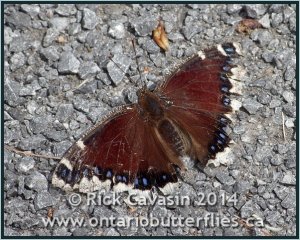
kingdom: Animalia
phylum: Arthropoda
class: Insecta
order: Lepidoptera
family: Nymphalidae
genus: Nymphalis
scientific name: Nymphalis antiopa
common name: Mourning Cloak
